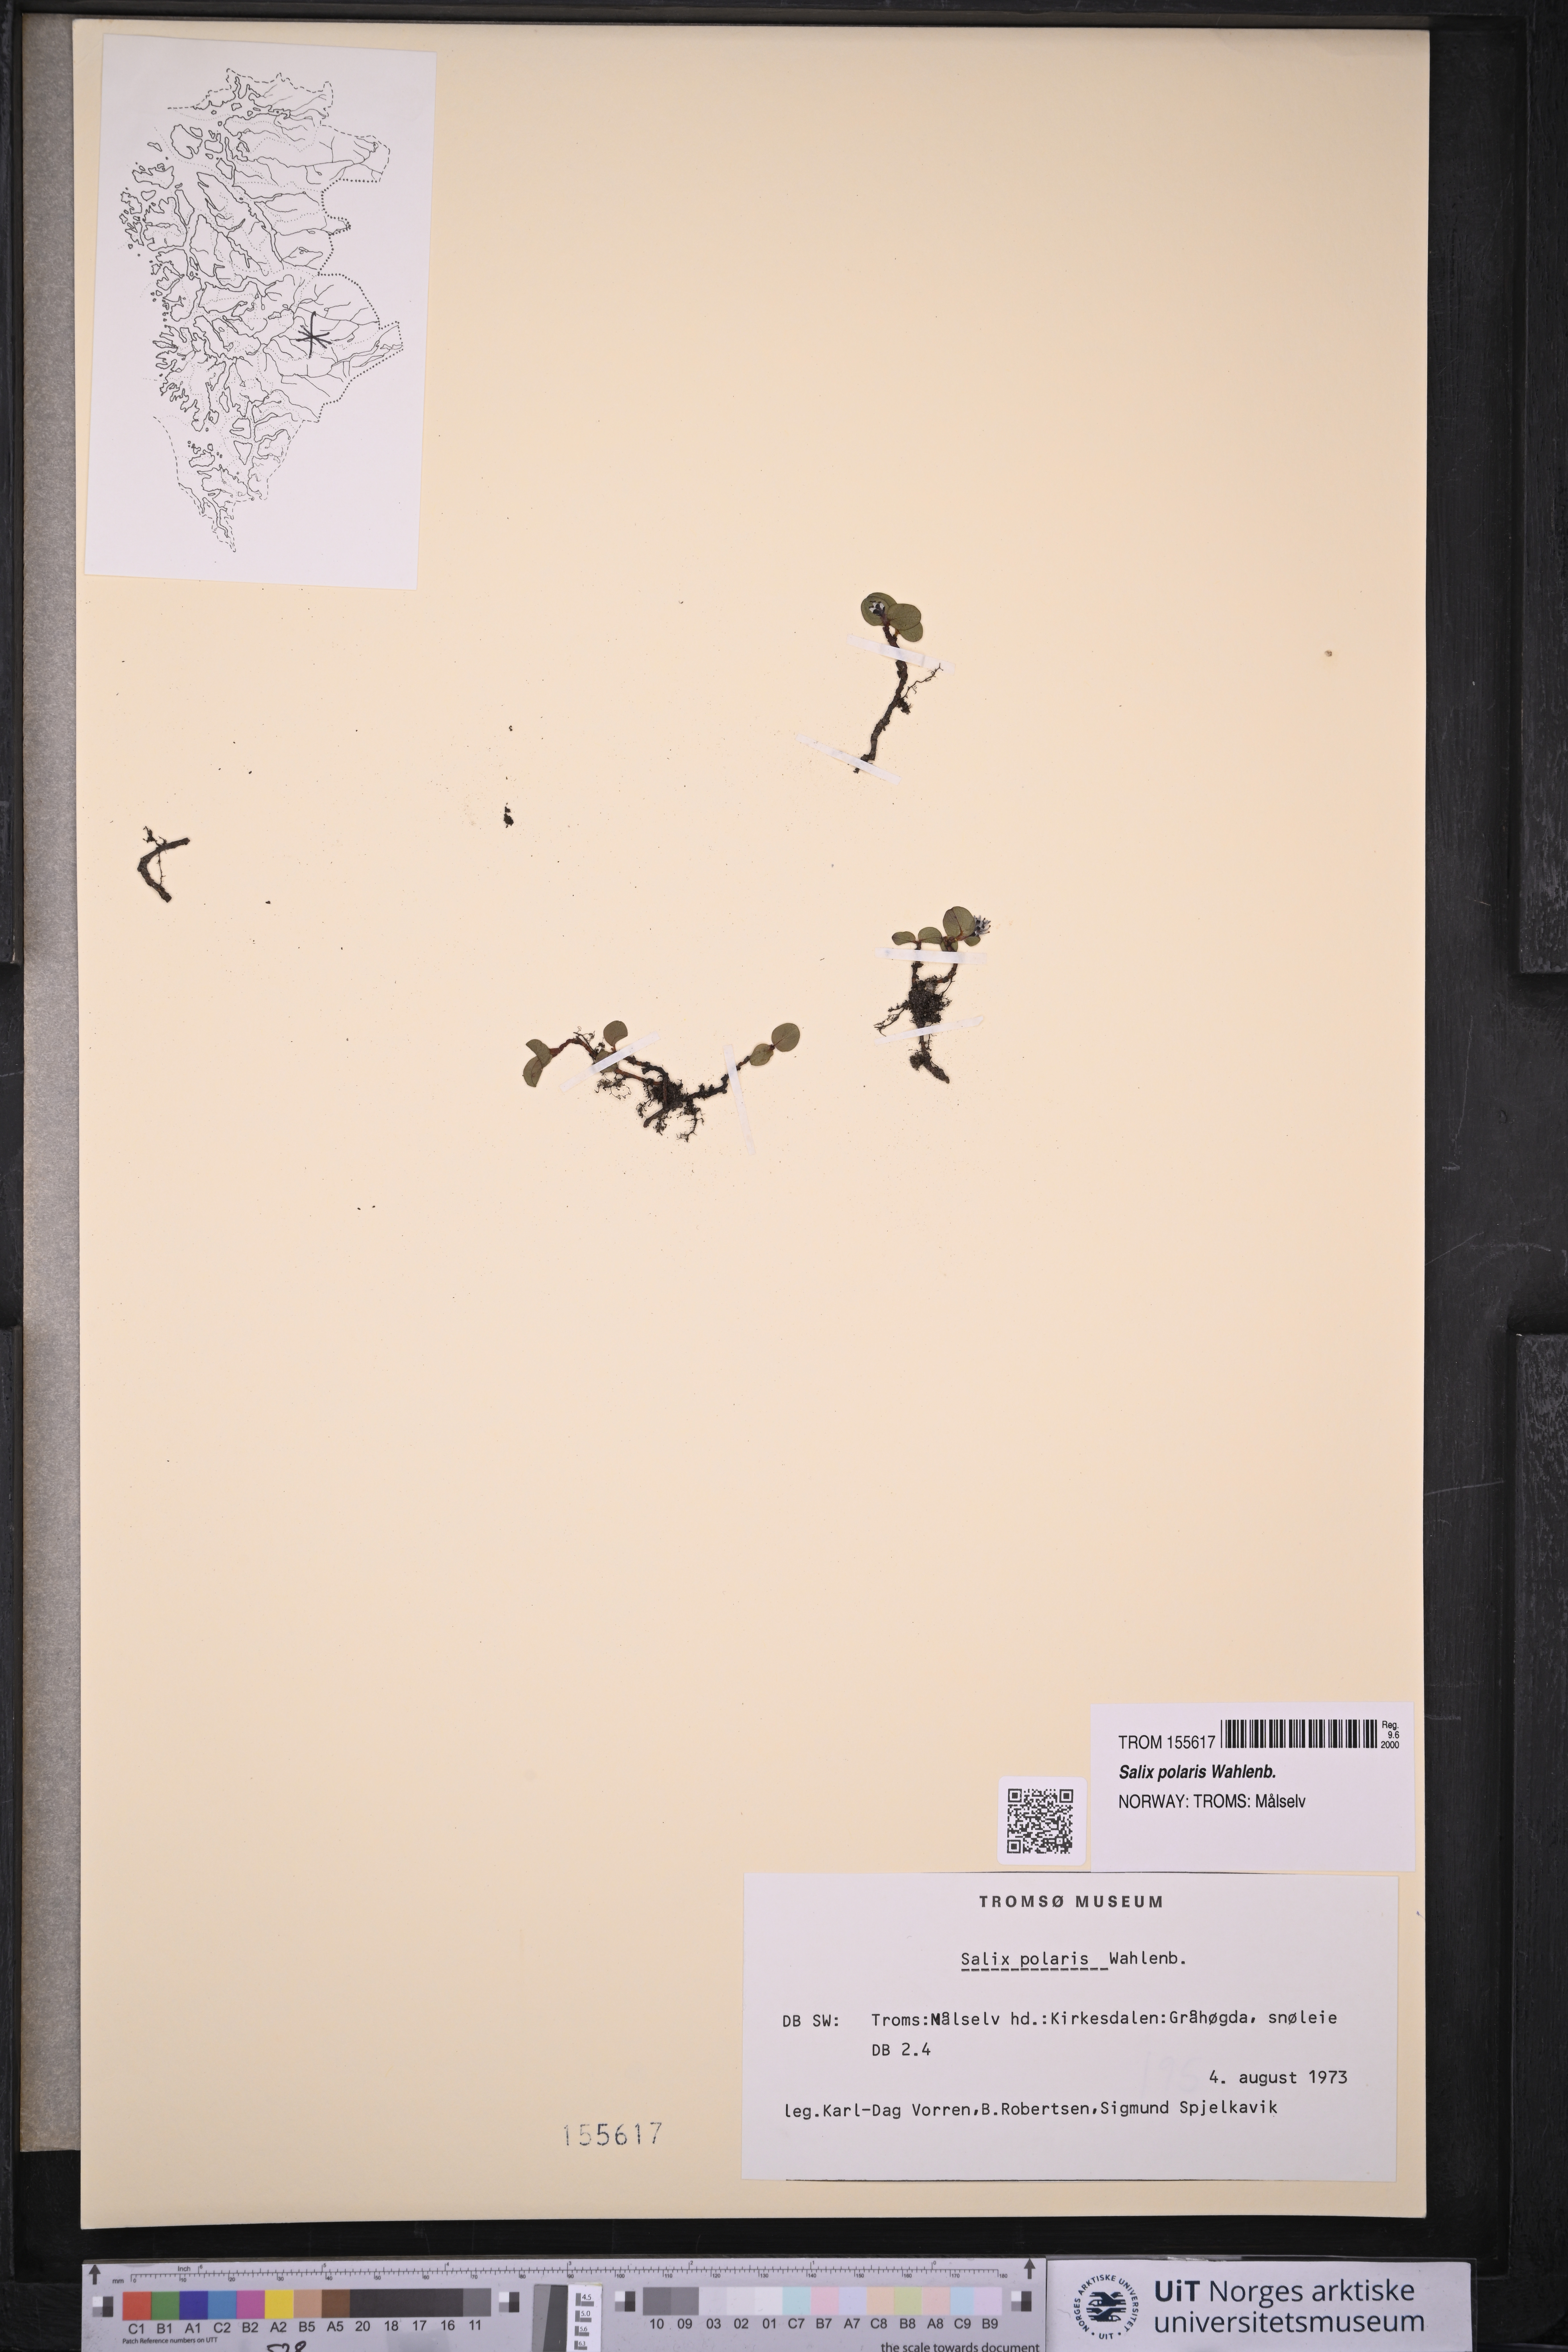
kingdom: Plantae
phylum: Tracheophyta
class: Magnoliopsida
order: Malpighiales
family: Salicaceae
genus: Salix
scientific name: Salix polaris
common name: Polar willow
